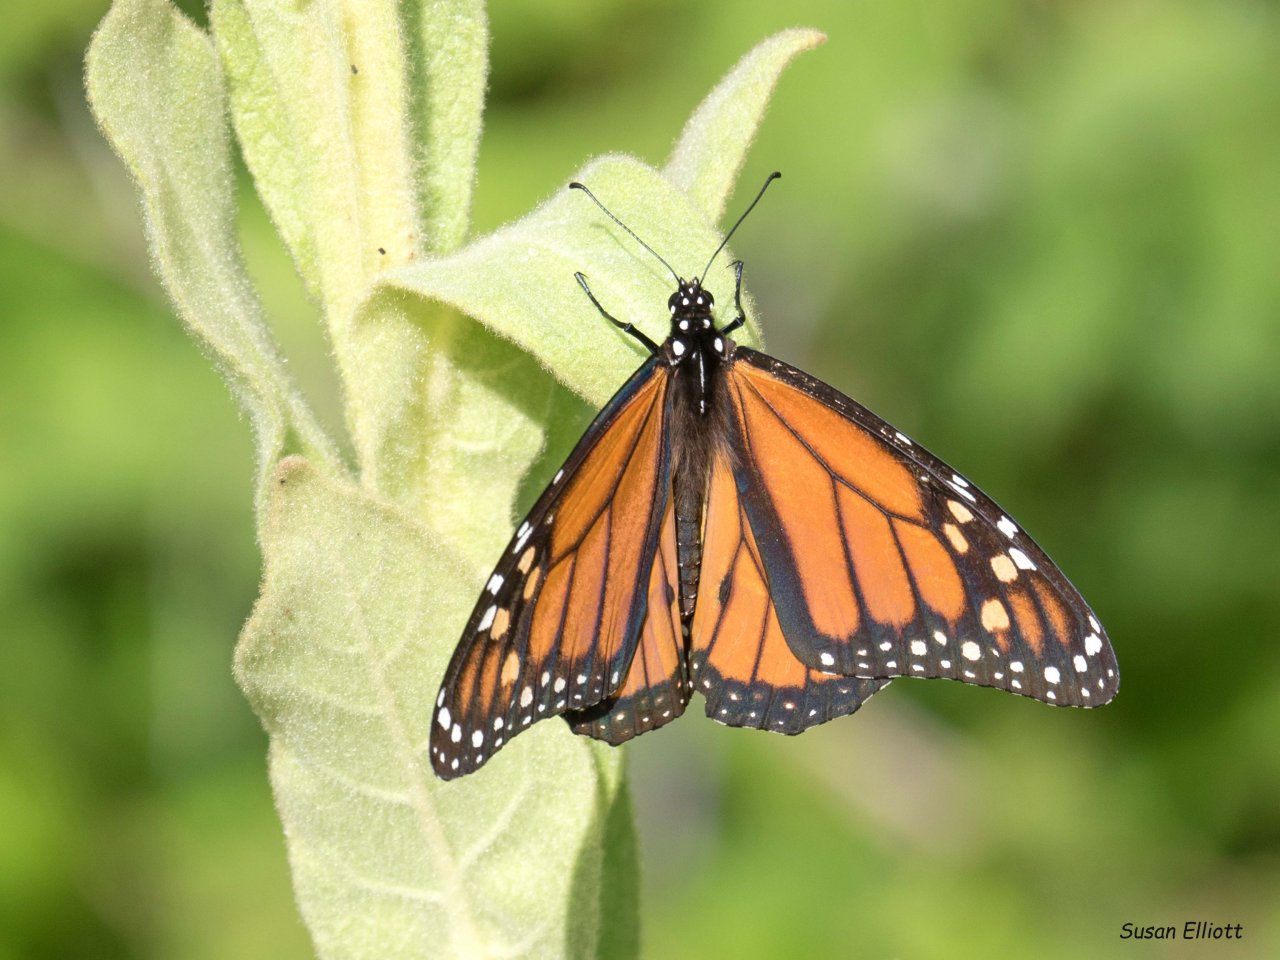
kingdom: Animalia
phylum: Arthropoda
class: Insecta
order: Lepidoptera
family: Nymphalidae
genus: Danaus
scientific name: Danaus plexippus
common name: Monarch
